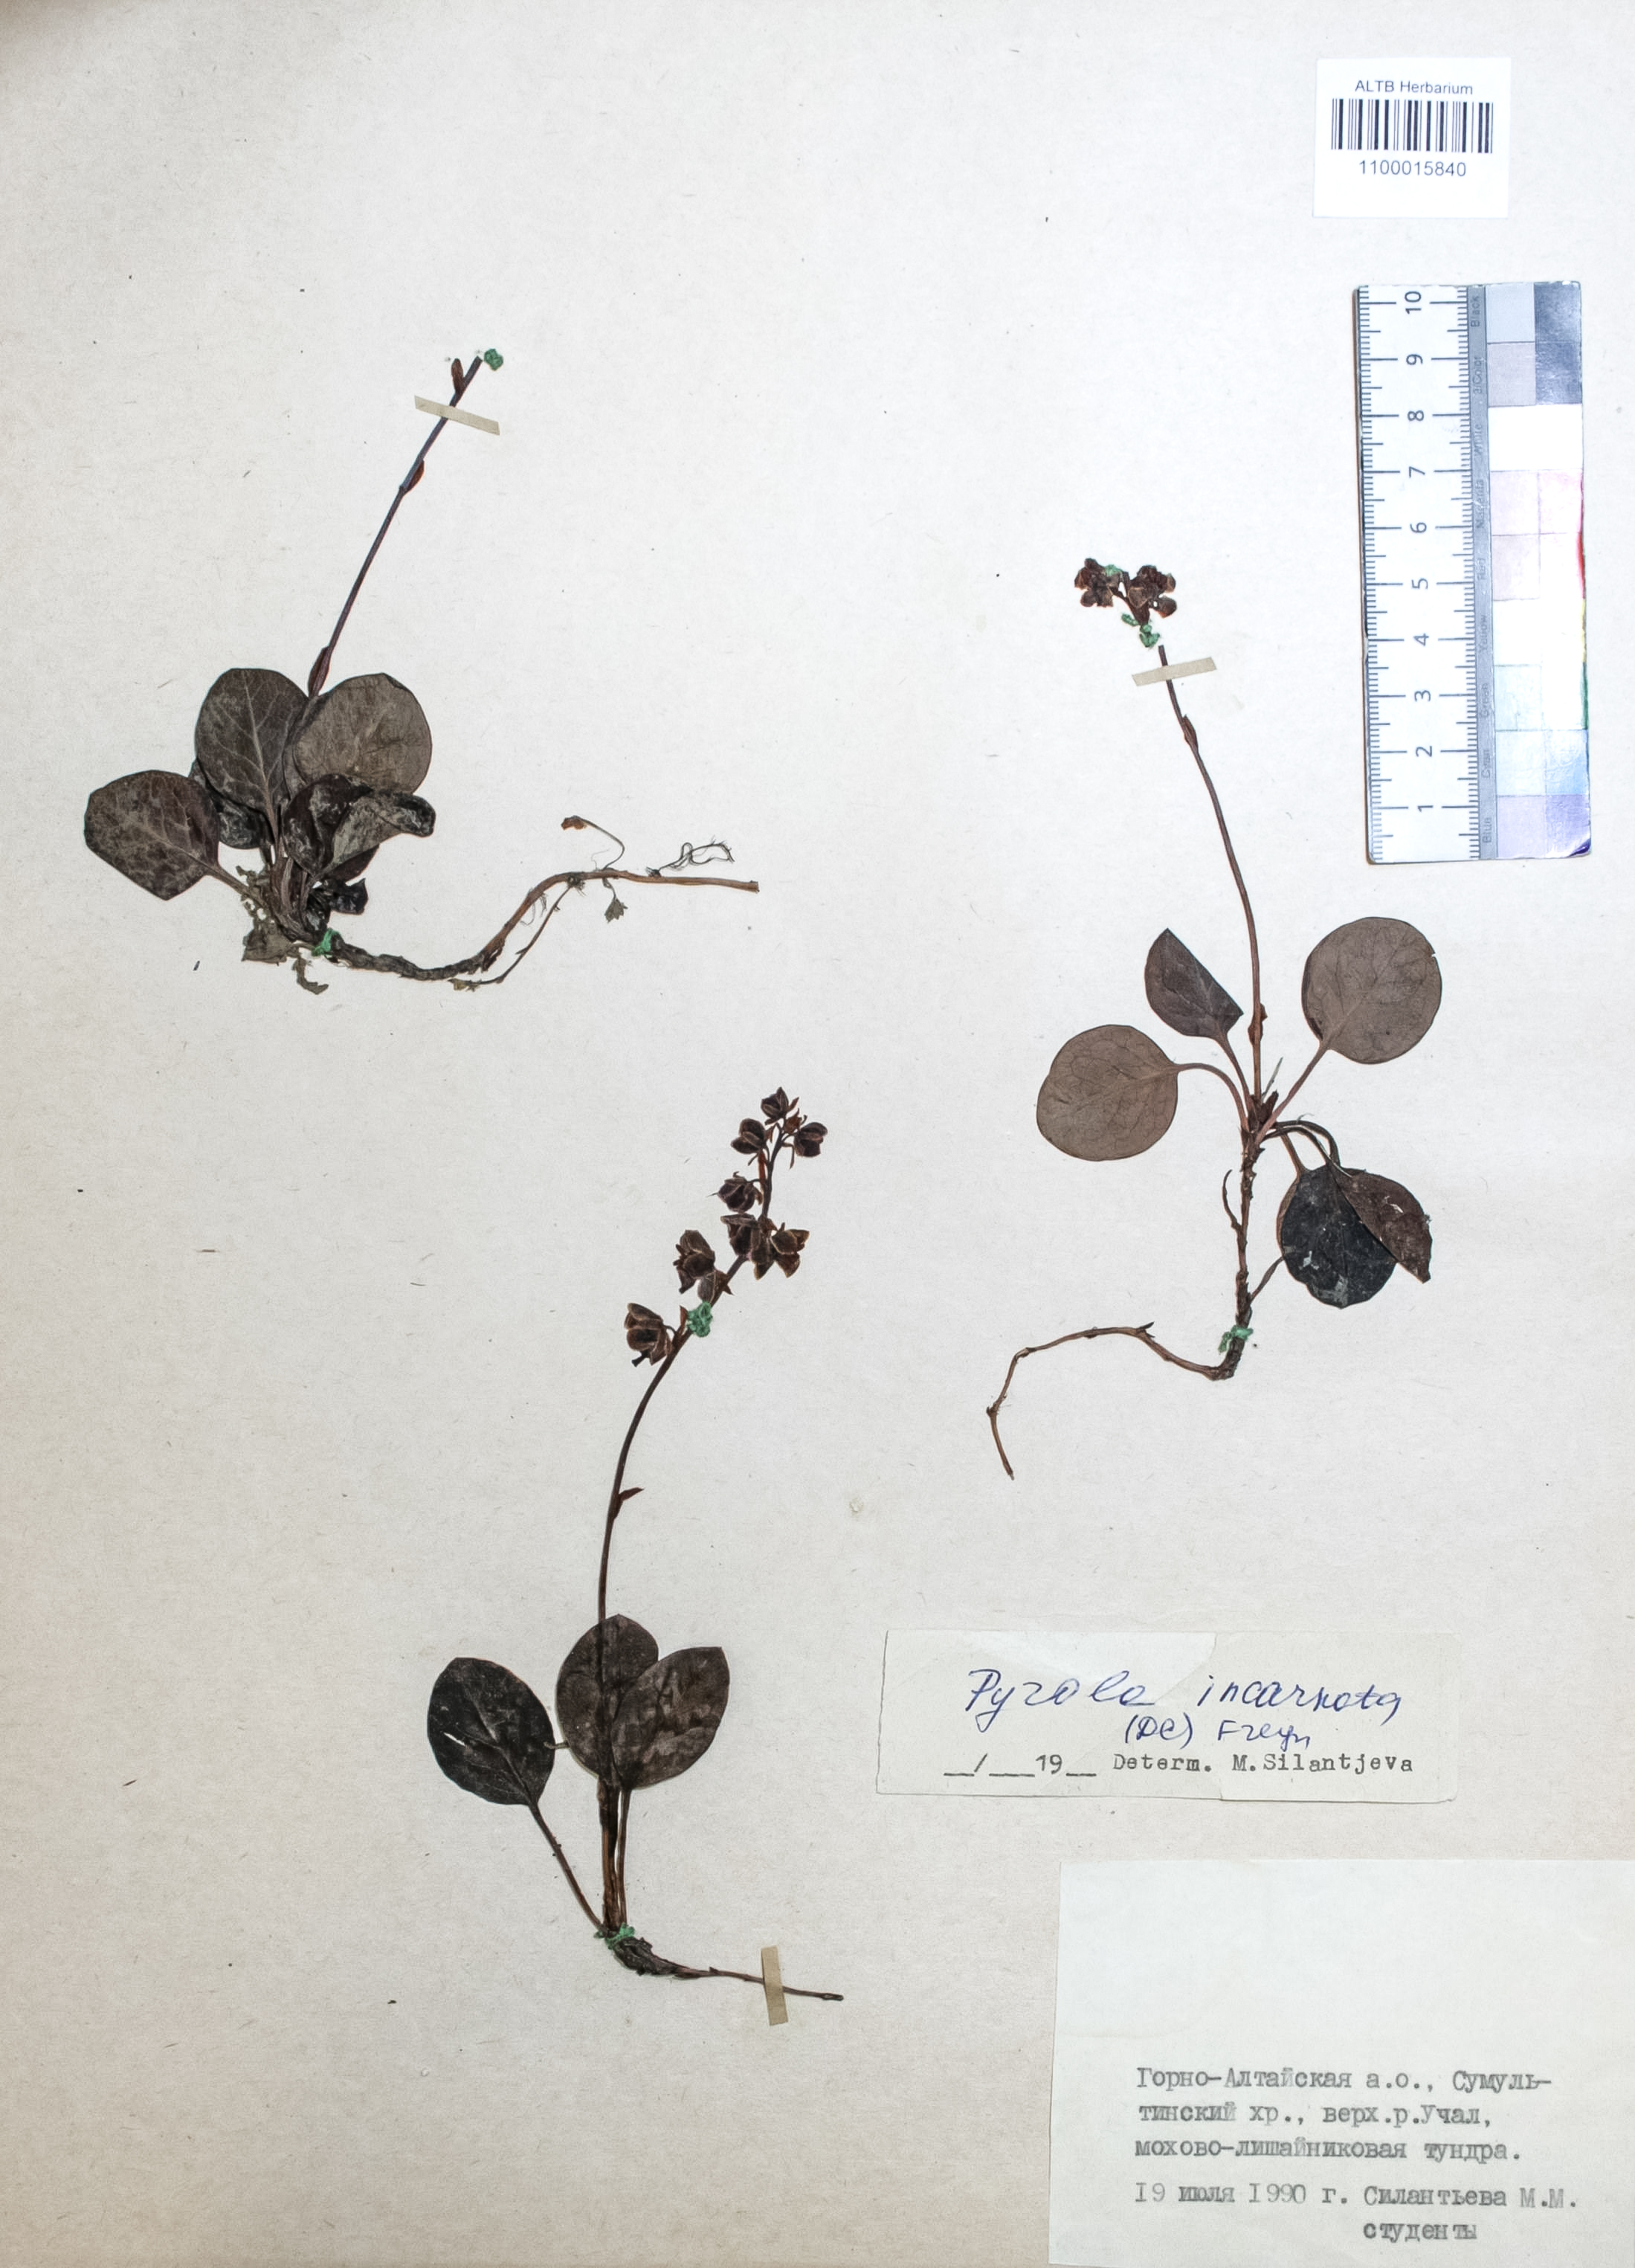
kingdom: Plantae
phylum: Tracheophyta
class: Magnoliopsida
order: Ericales
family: Ericaceae
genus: Pyrola
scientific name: Pyrola asarifolia
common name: Bog wintergreen
